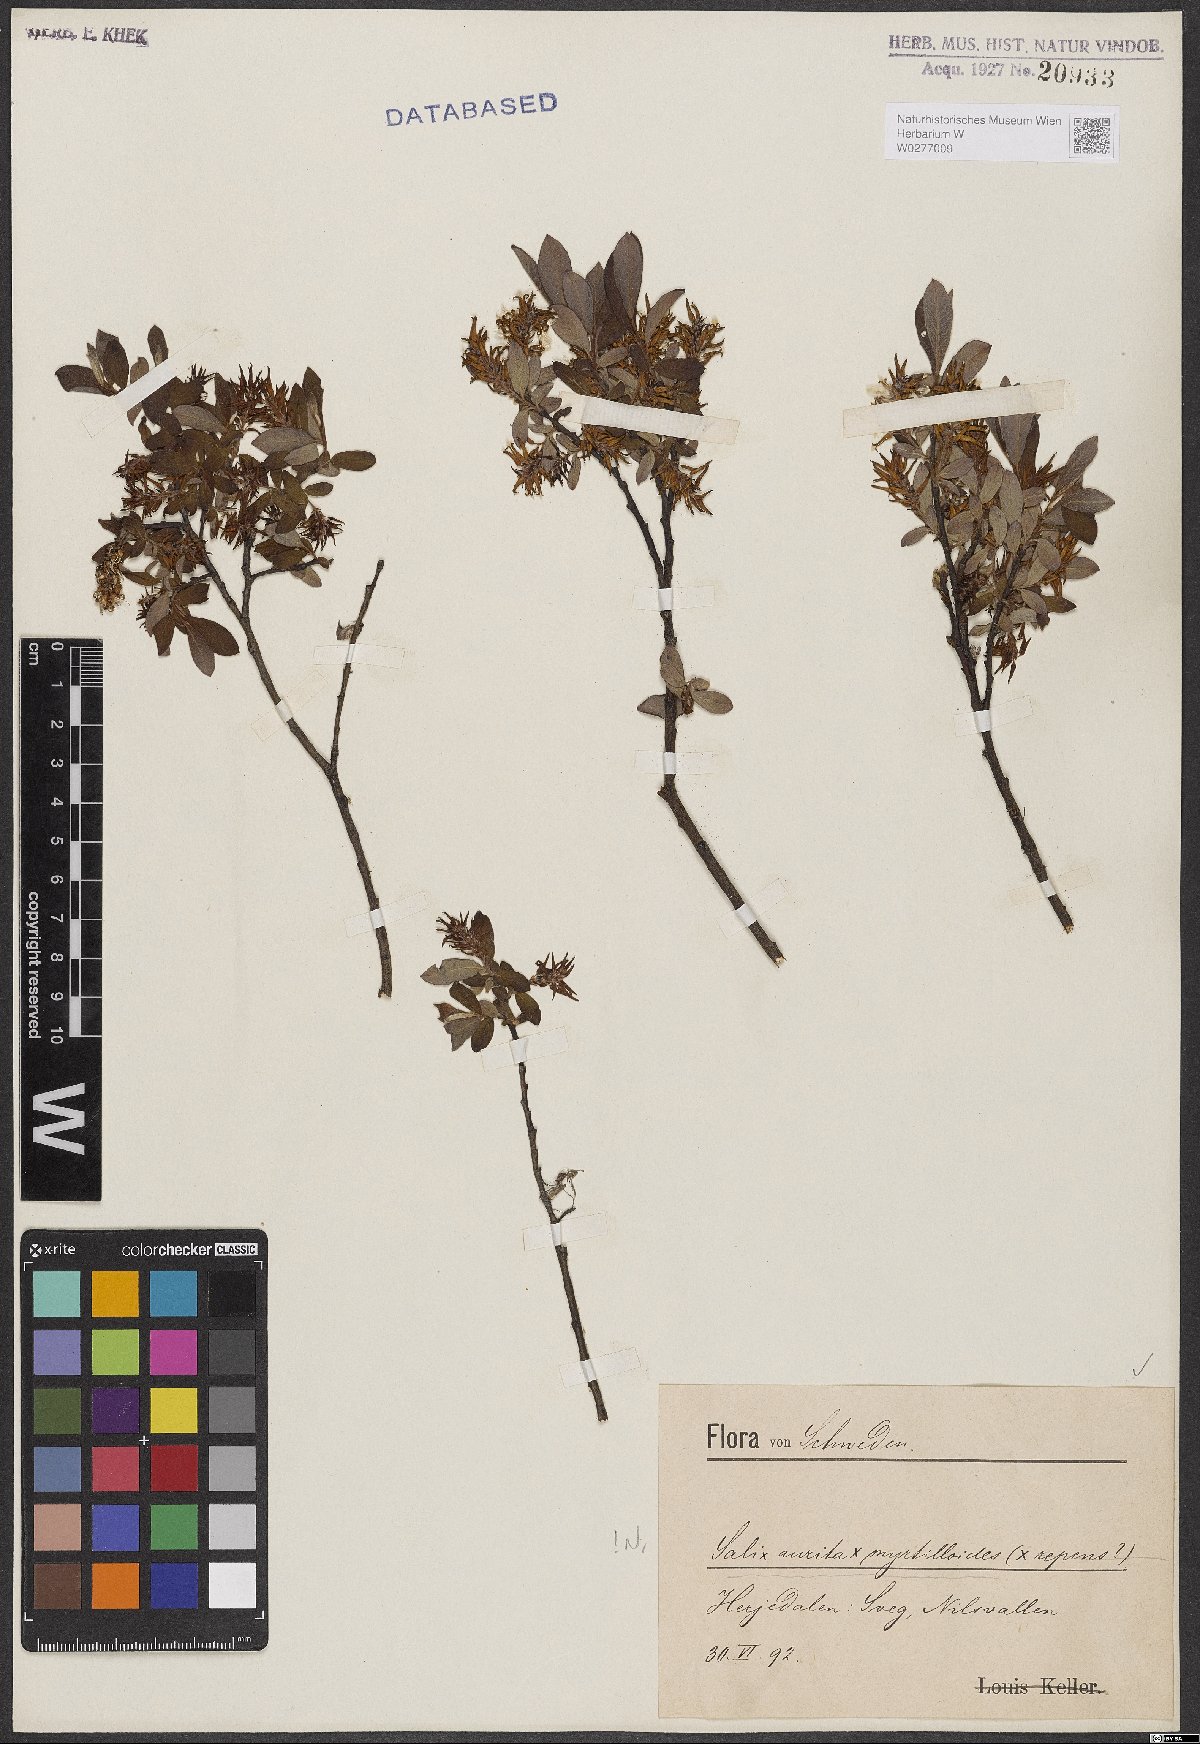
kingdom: Plantae
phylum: Tracheophyta
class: Magnoliopsida
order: Malpighiales
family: Salicaceae
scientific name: Salicaceae
